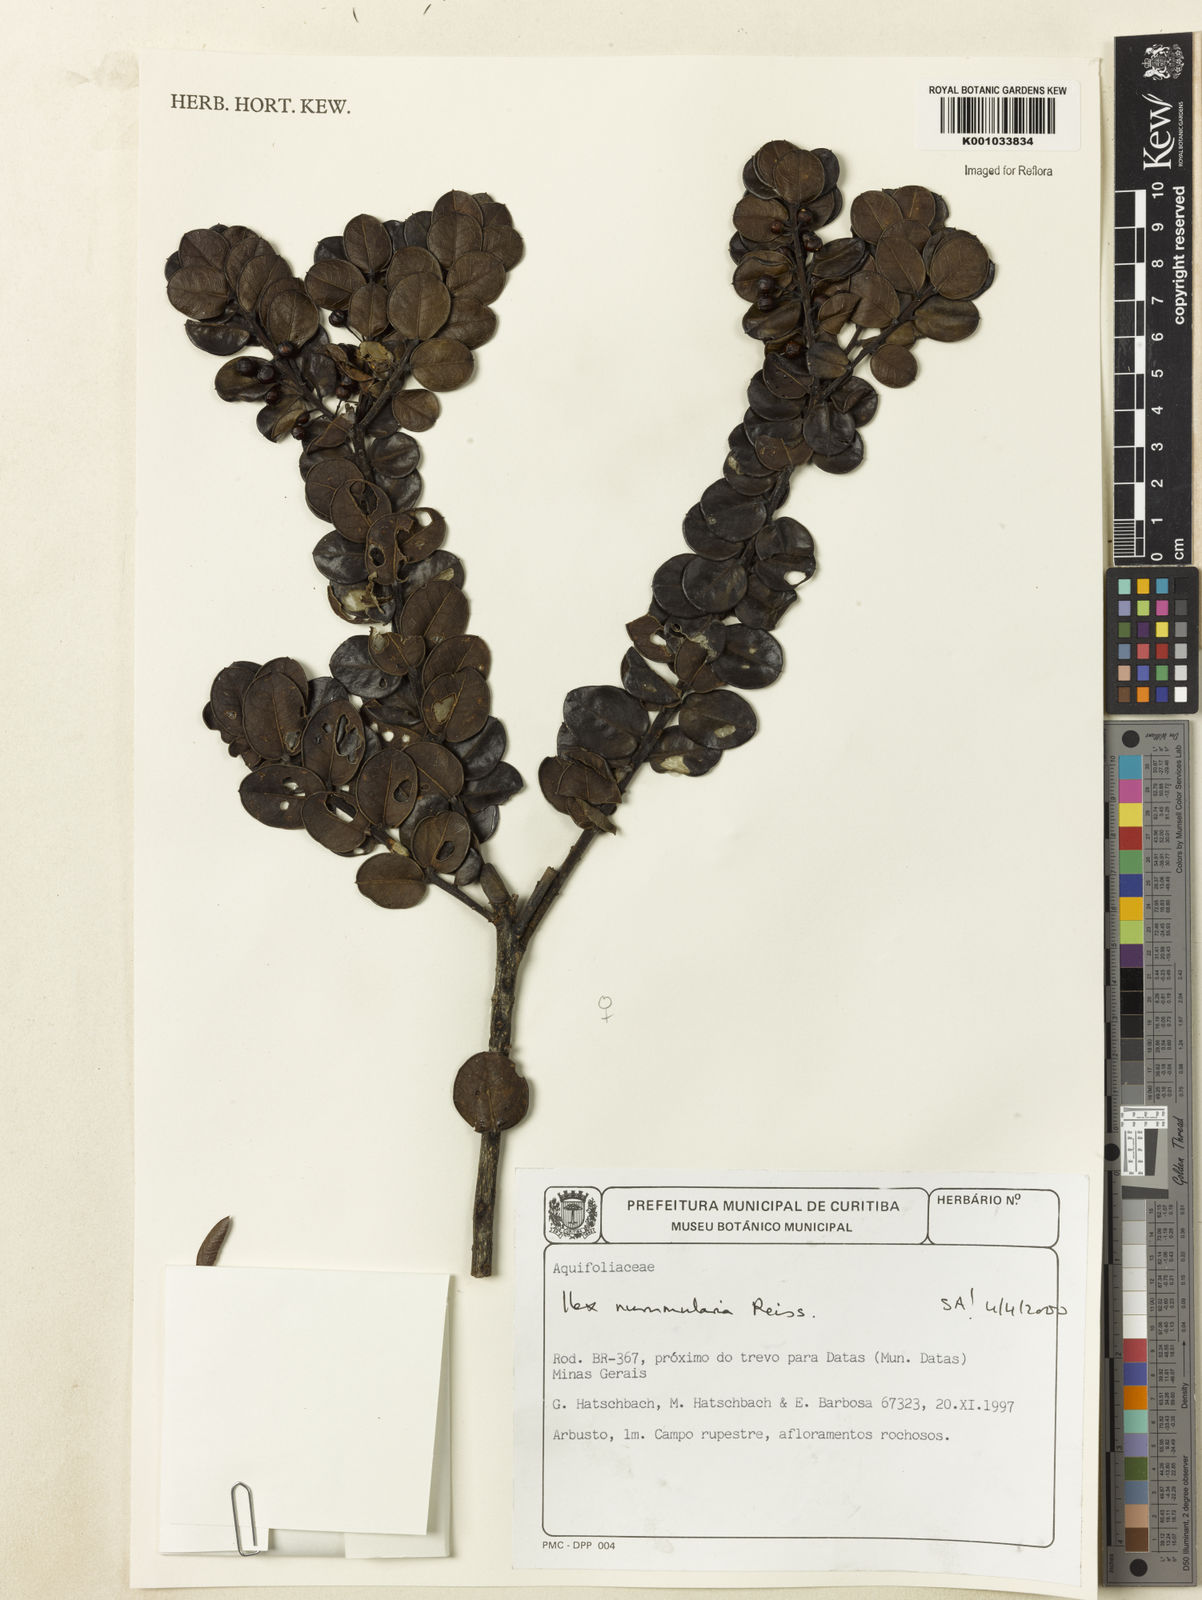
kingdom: Plantae
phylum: Tracheophyta
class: Magnoliopsida
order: Aquifoliales
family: Aquifoliaceae
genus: Ilex
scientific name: Ilex nummularia
